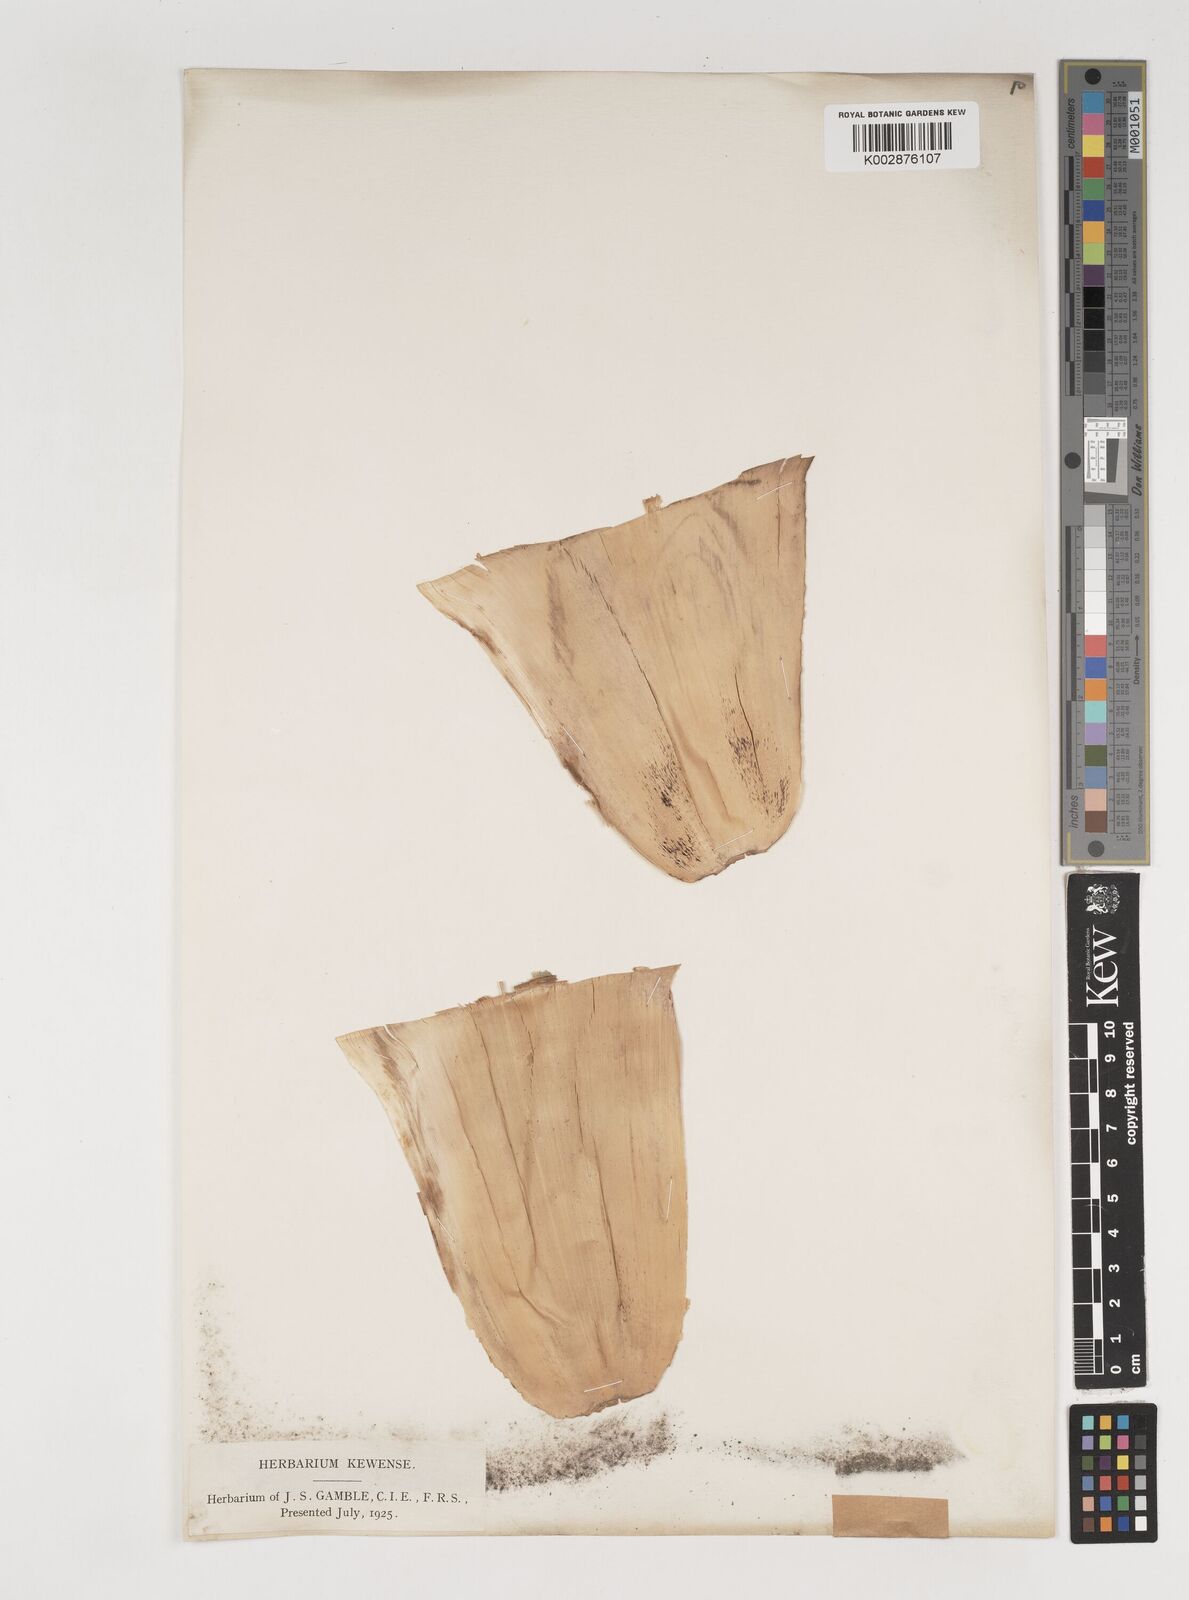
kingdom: Plantae
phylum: Tracheophyta
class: Liliopsida
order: Poales
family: Poaceae
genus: Bambusa
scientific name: Bambusa affinis
